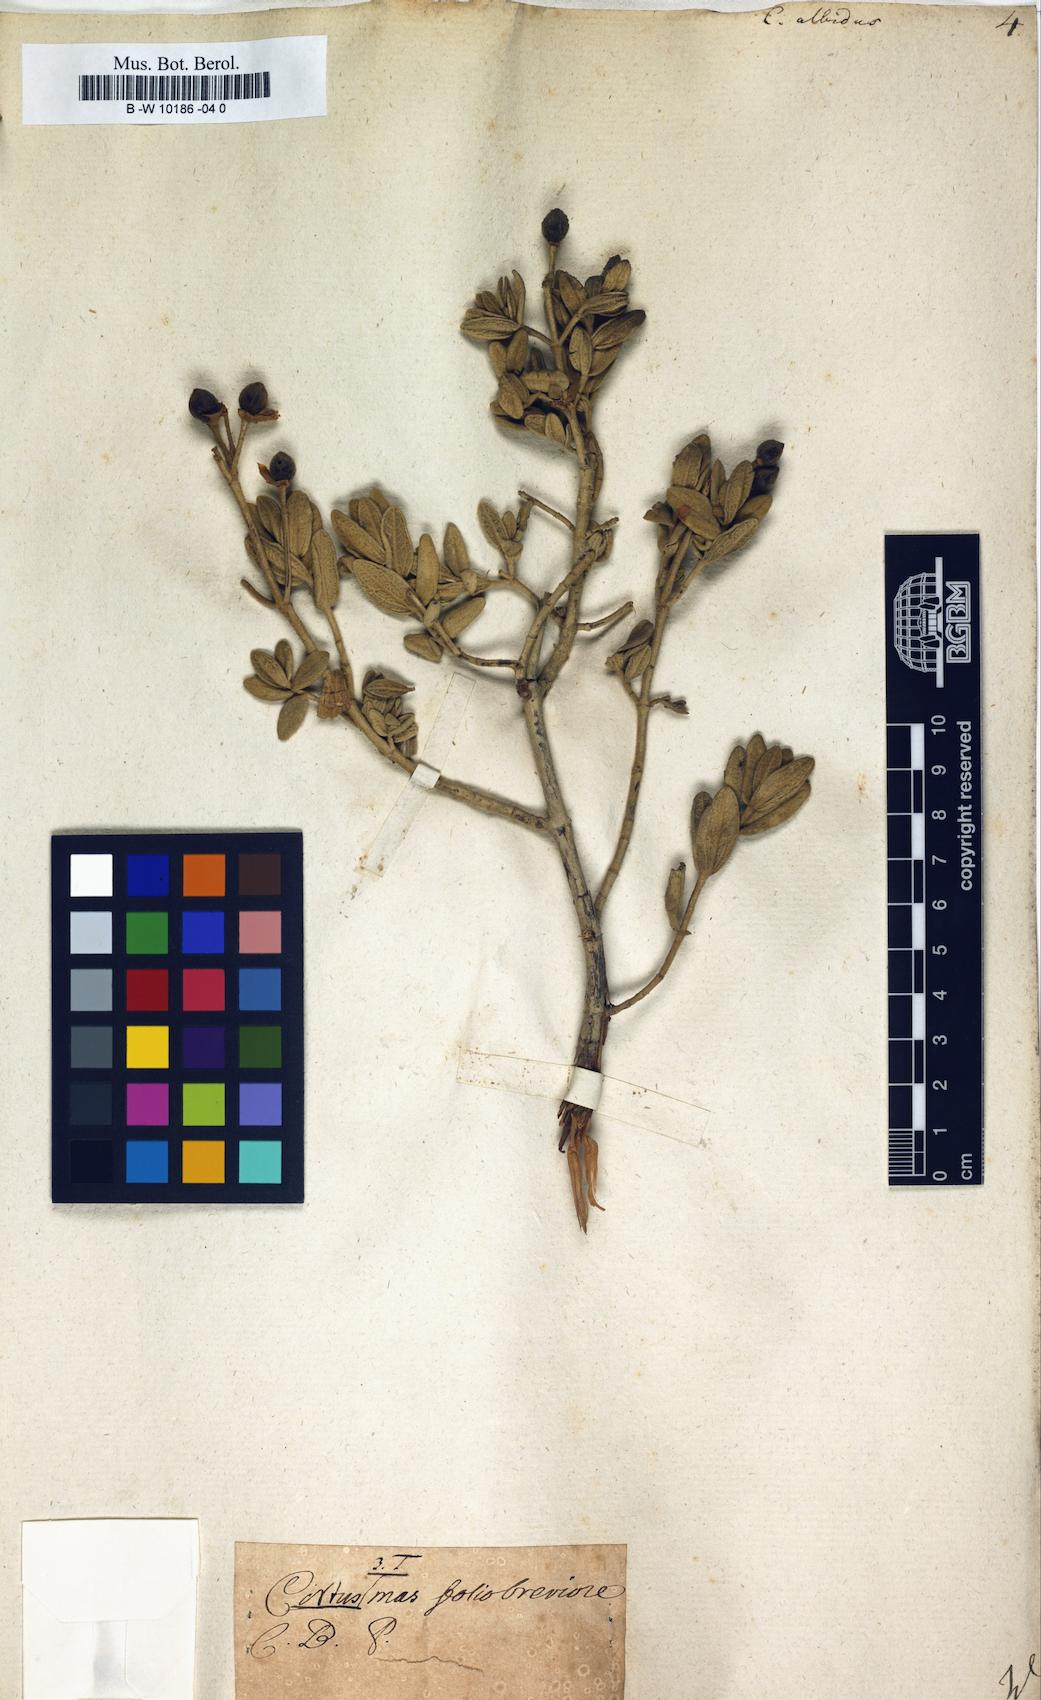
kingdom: Plantae
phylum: Tracheophyta
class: Magnoliopsida
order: Malvales
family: Cistaceae
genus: Cistus
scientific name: Cistus albidus
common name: White-leaf rock-rose
